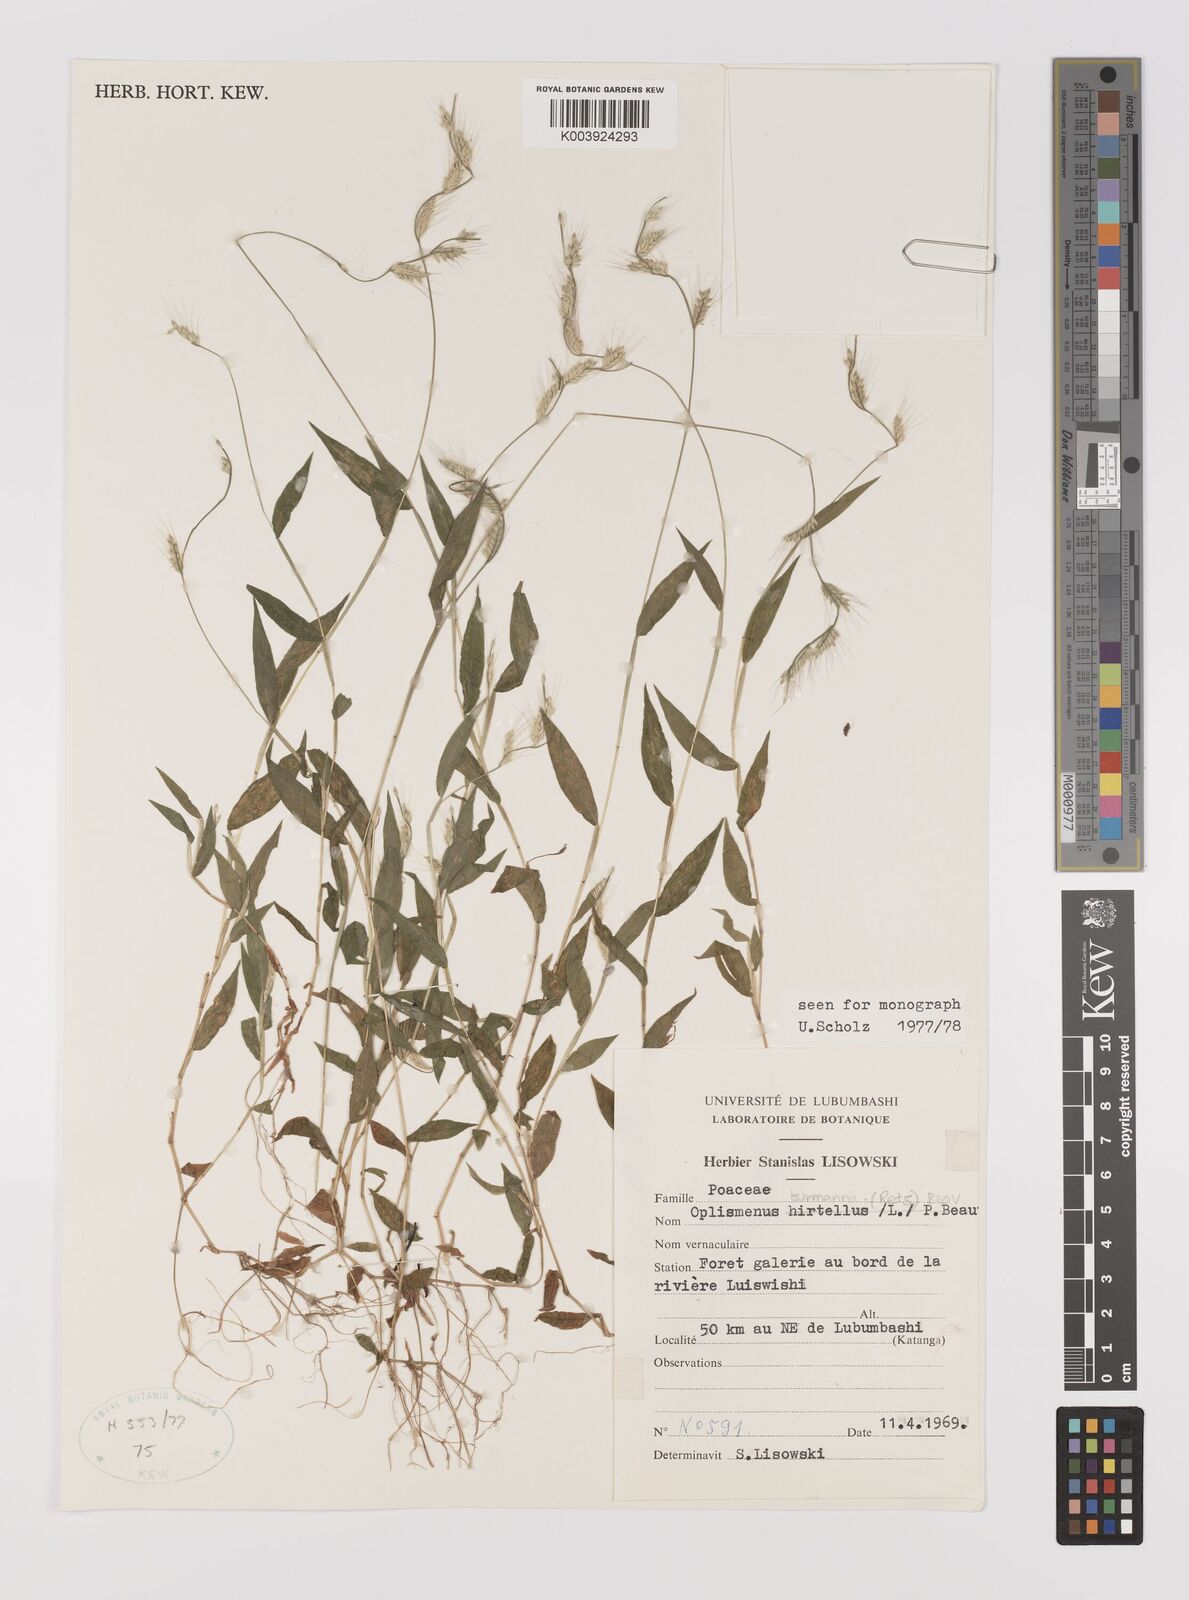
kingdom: Plantae
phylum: Tracheophyta
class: Liliopsida
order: Poales
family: Poaceae
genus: Oplismenus
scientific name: Oplismenus burmanni
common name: Burmann's basketgrass
